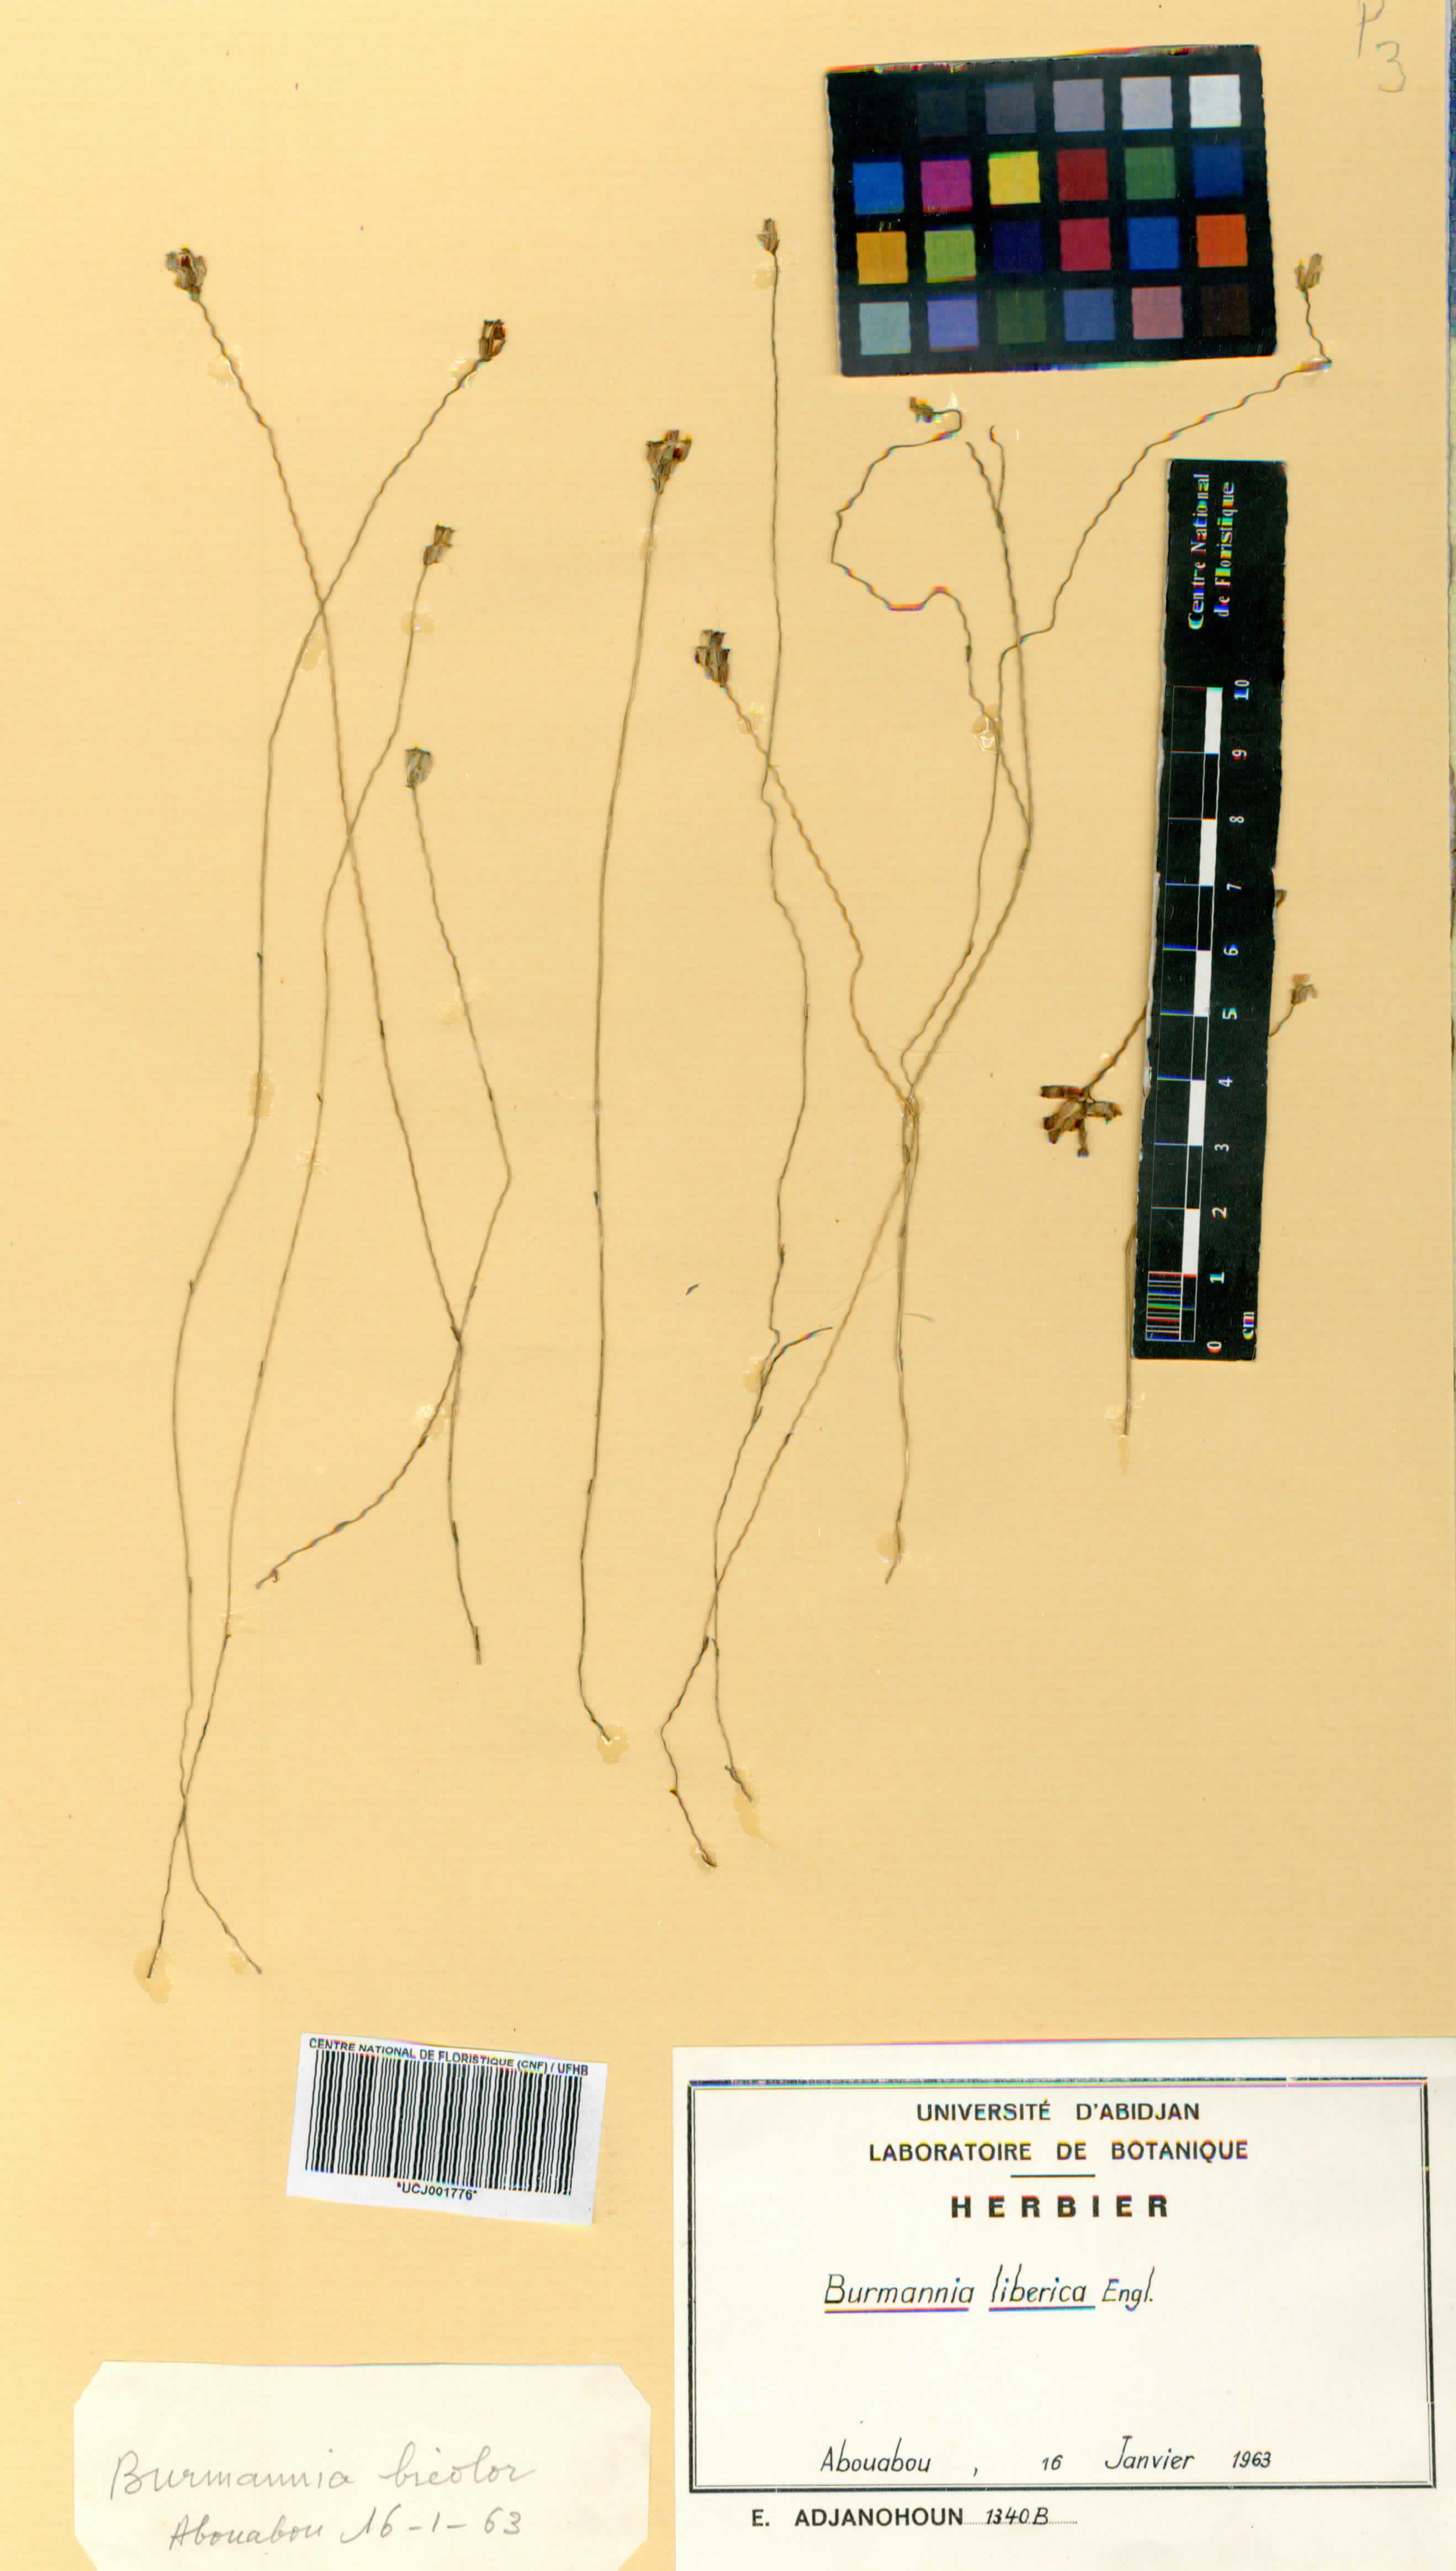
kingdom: Plantae
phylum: Tracheophyta
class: Liliopsida
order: Dioscoreales
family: Burmanniaceae
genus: Burmannia
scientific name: Burmannia latialata
